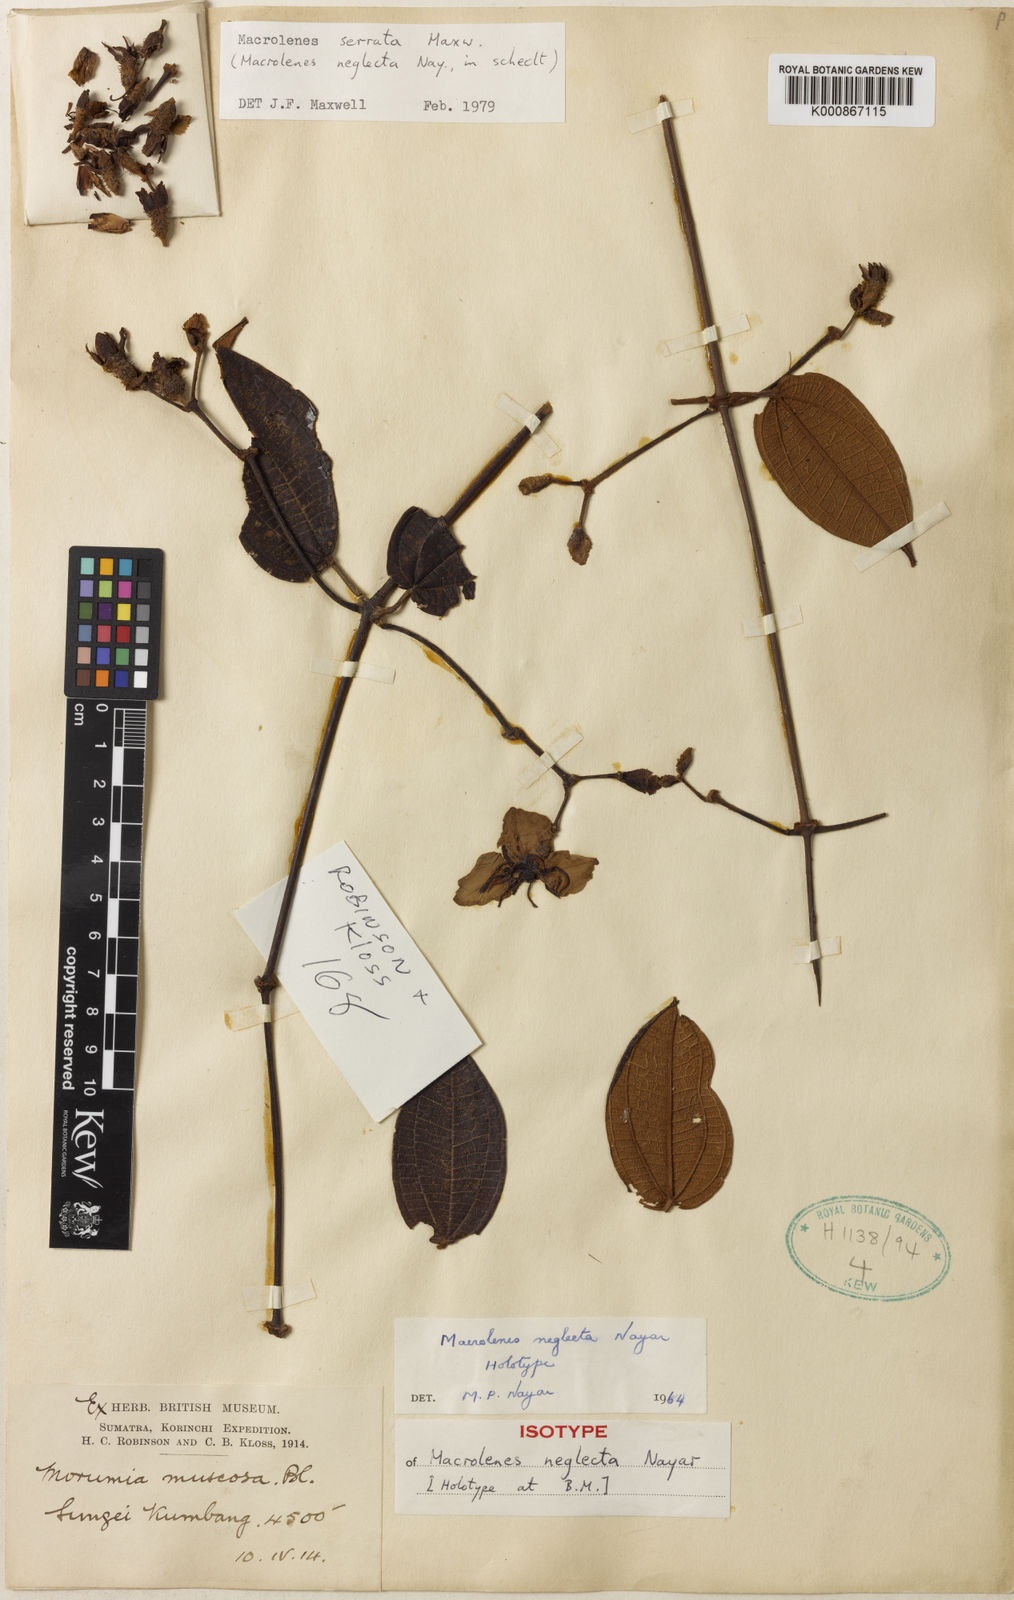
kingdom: Plantae
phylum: Tracheophyta
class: Magnoliopsida
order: Myrtales
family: Melastomataceae
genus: Macrolenes
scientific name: Macrolenes
